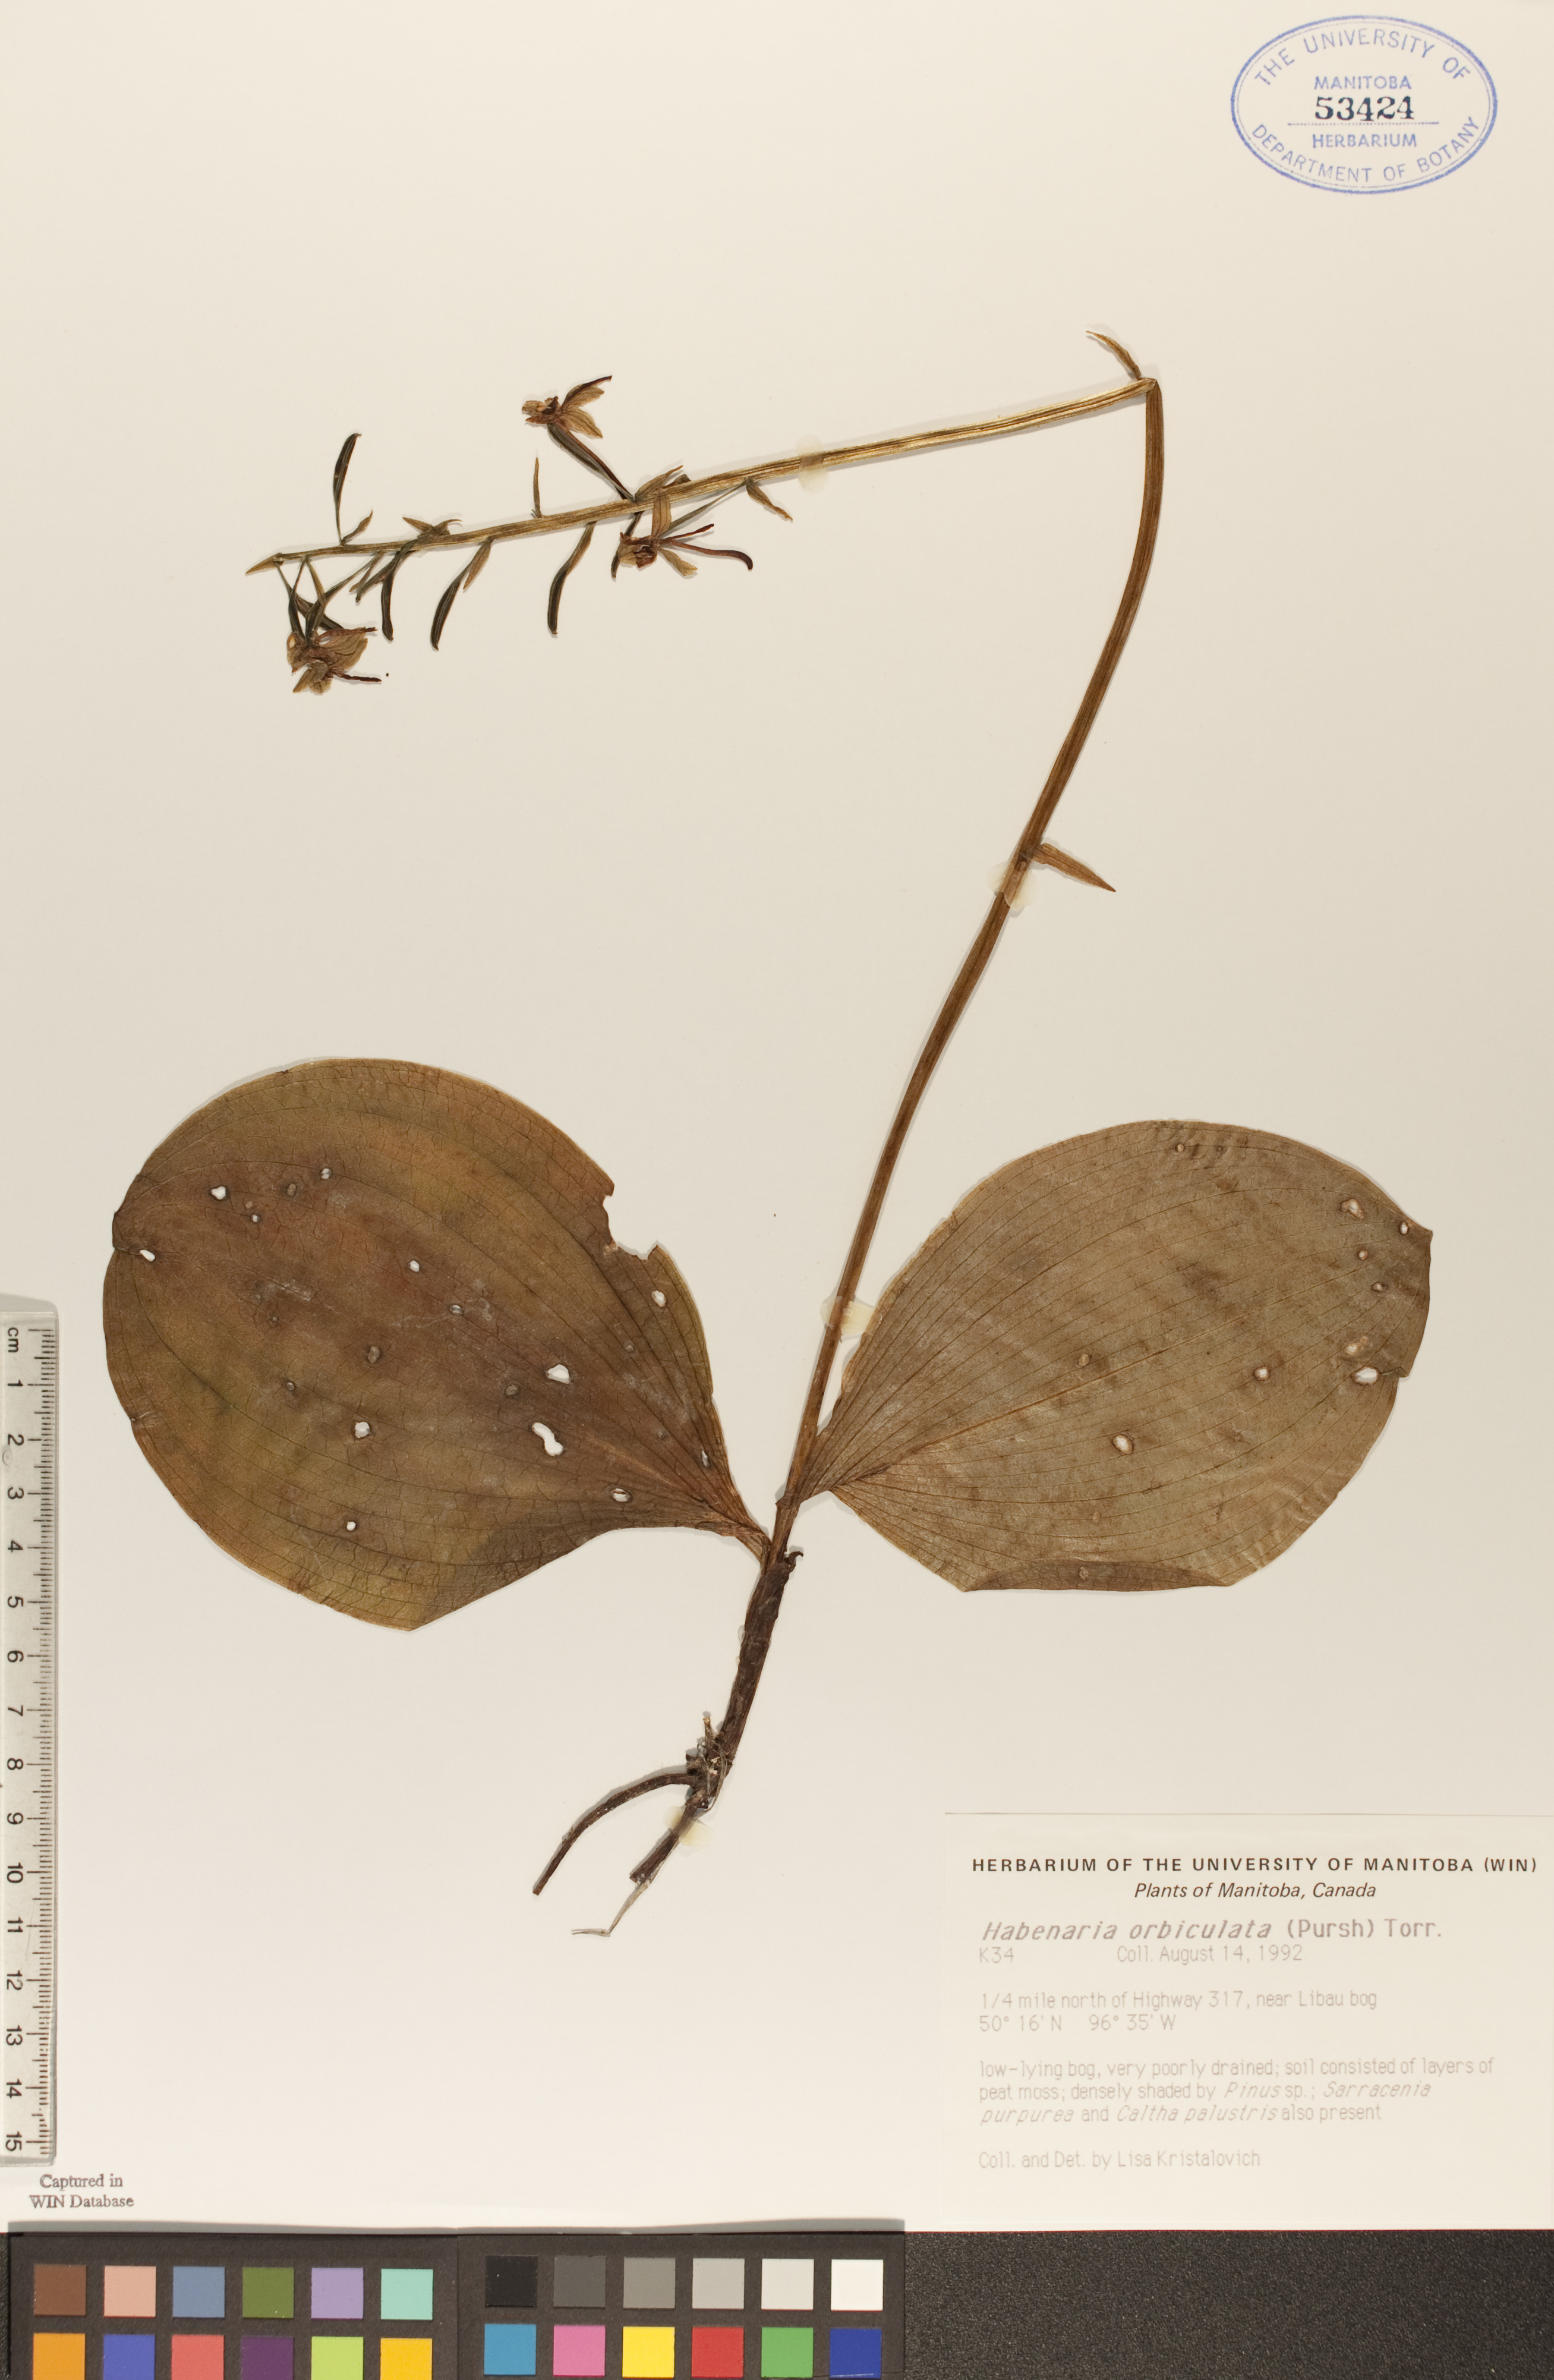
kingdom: Plantae
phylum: Tracheophyta
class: Liliopsida
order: Asparagales
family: Orchidaceae
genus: Platanthera
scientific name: Platanthera orbiculata
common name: Large round-leaved orchid
